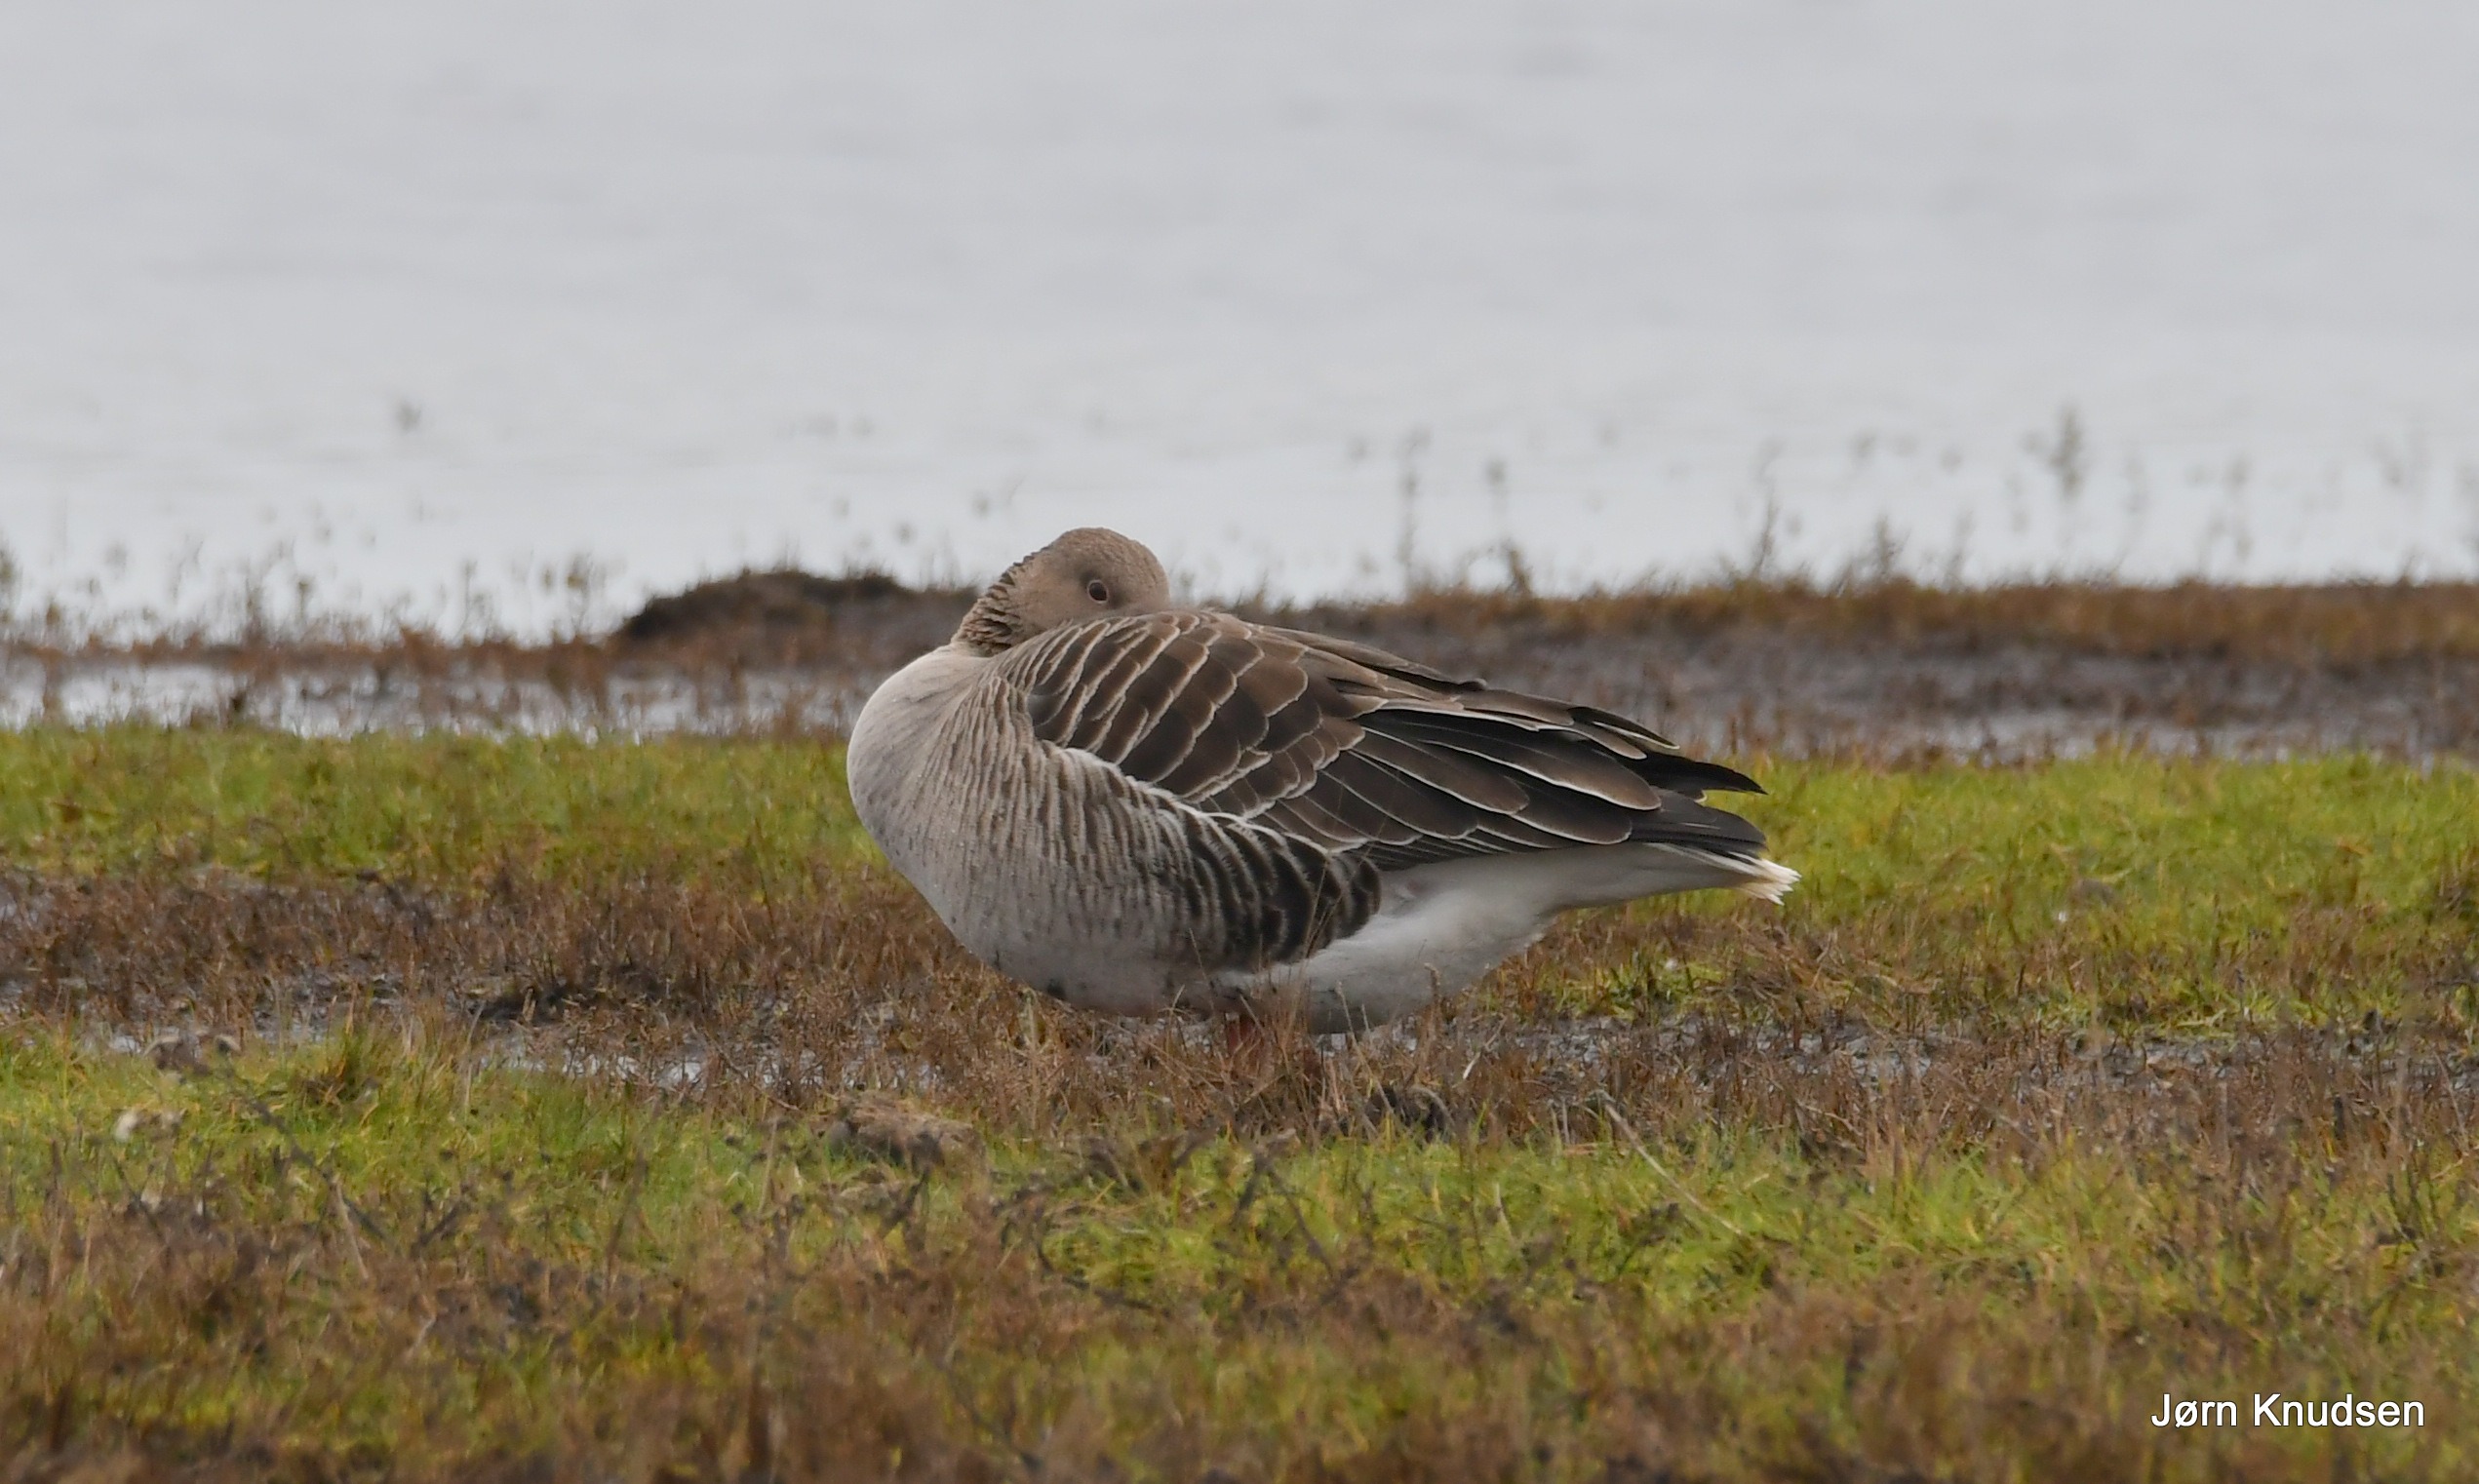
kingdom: Animalia
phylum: Chordata
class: Aves
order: Anseriformes
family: Anatidae
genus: Anser
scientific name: Anser anser
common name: Grågås
